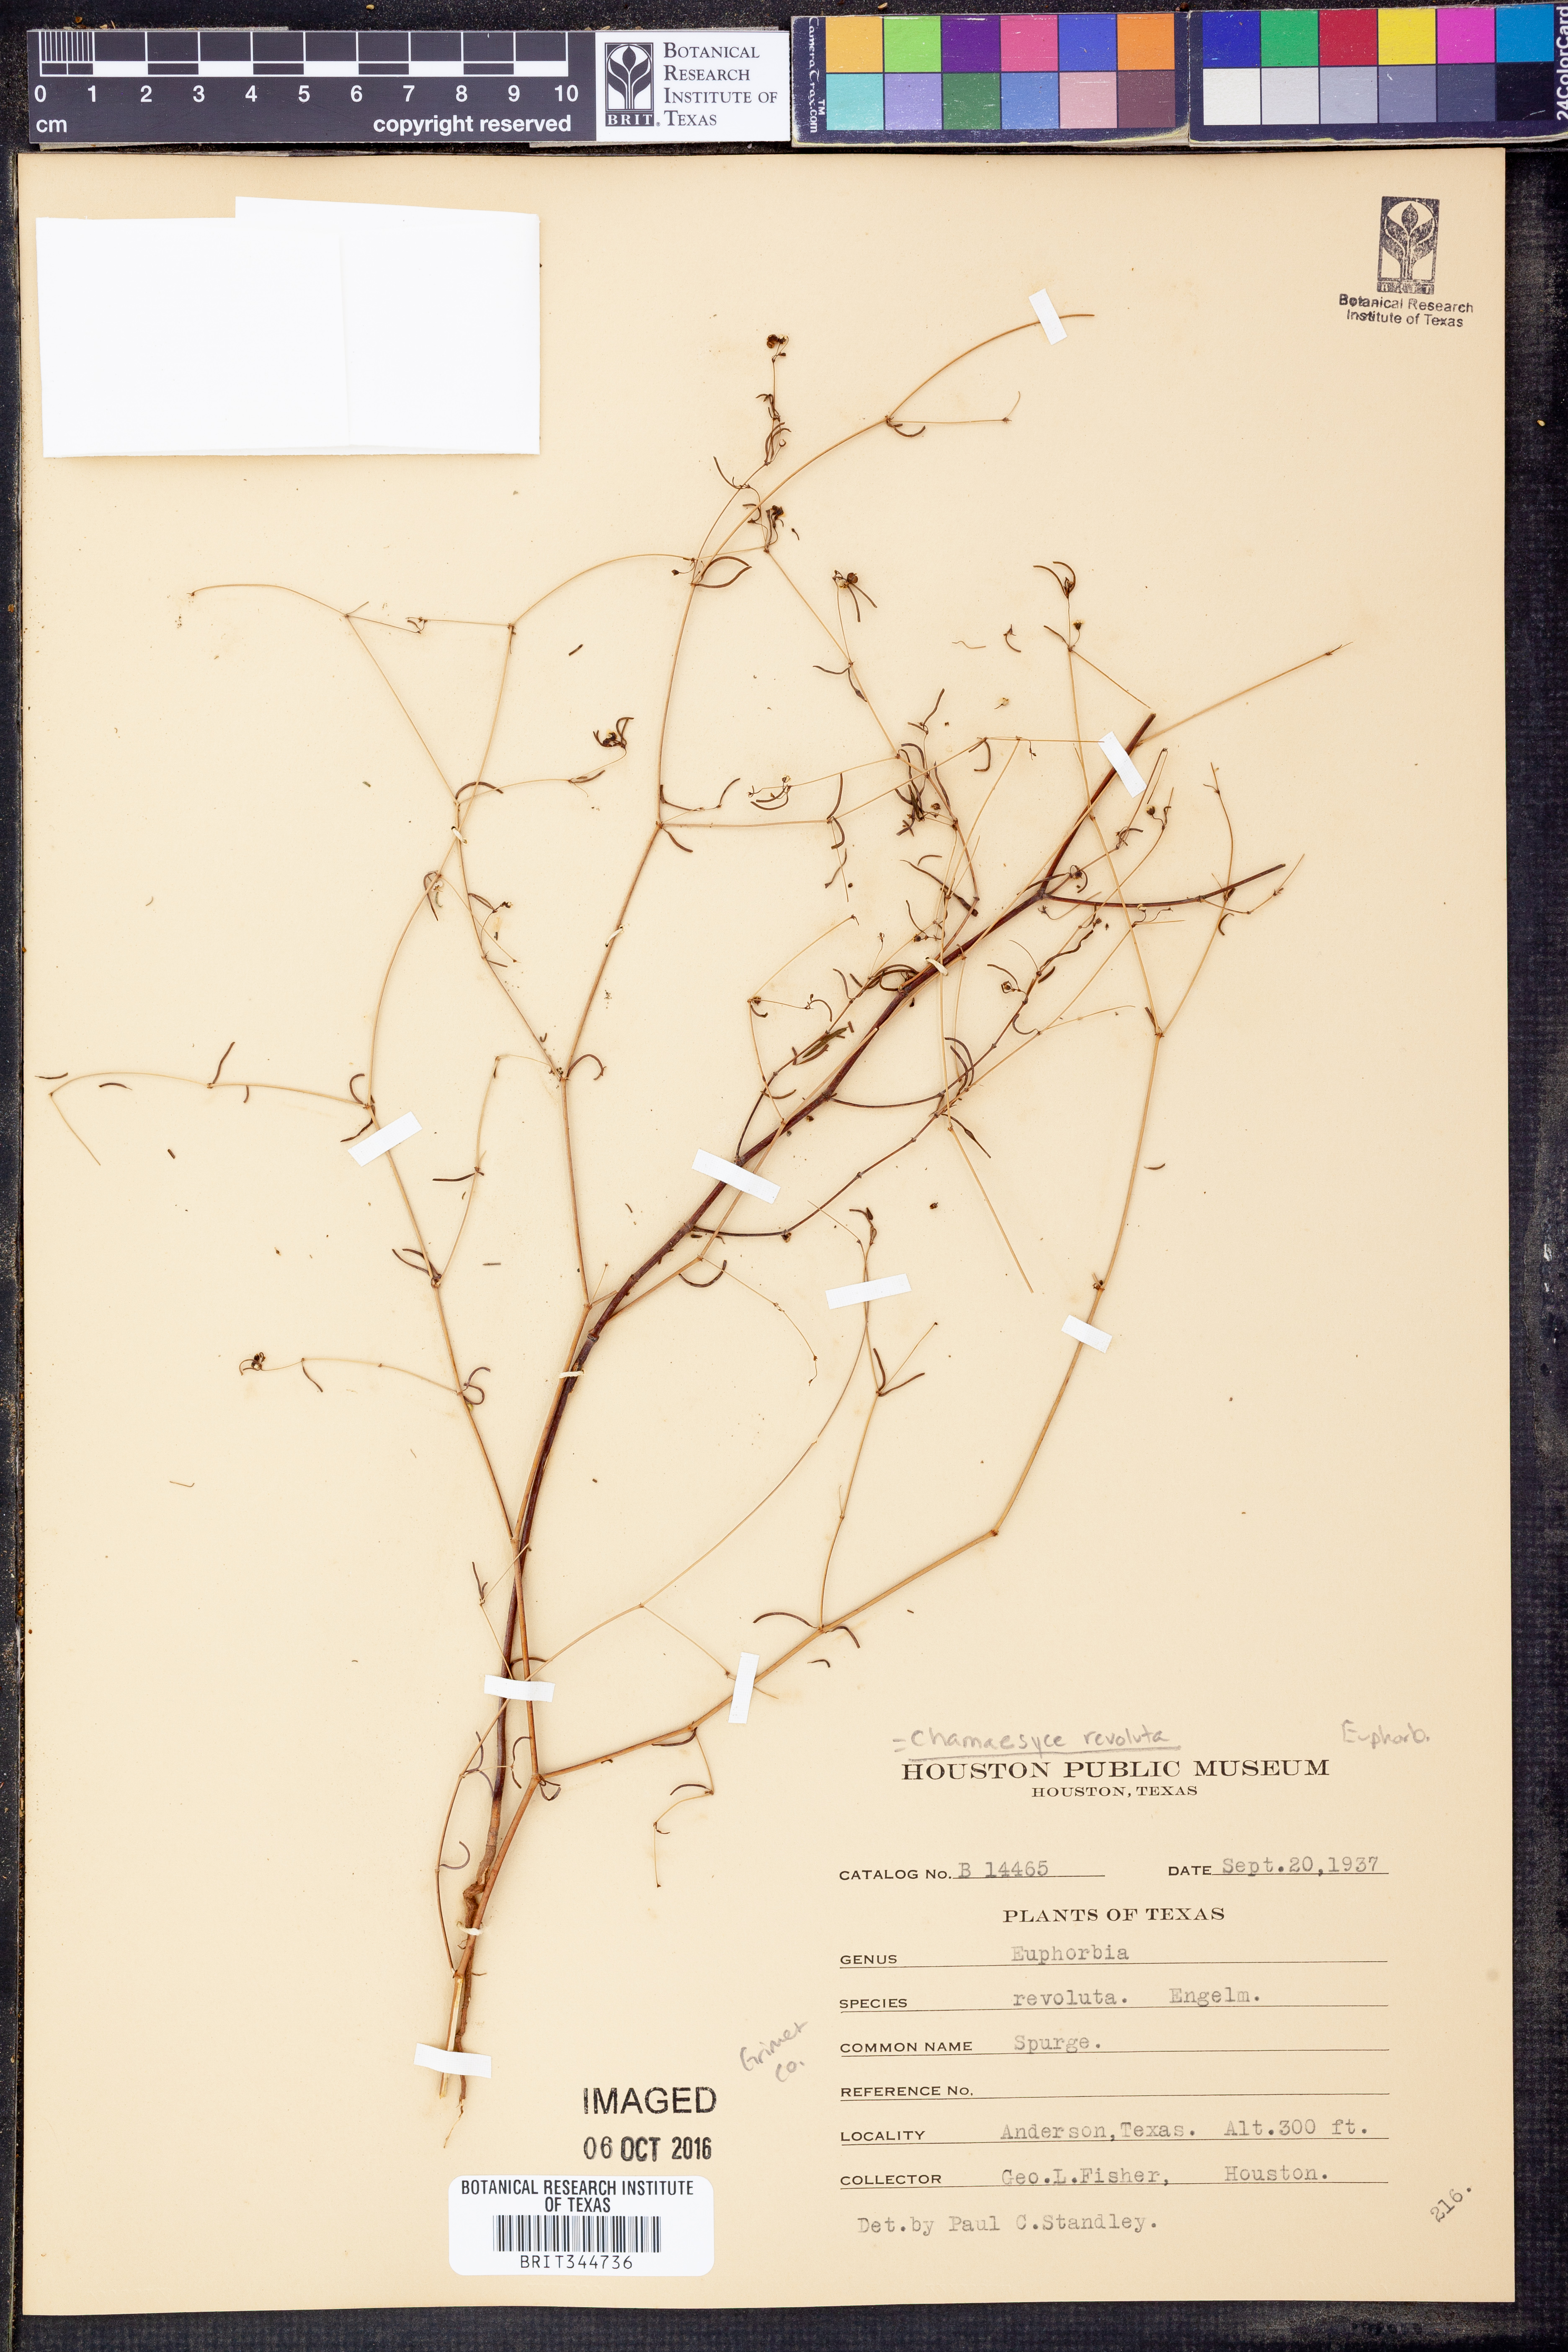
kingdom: Plantae
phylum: Tracheophyta
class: Magnoliopsida
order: Malpighiales
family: Euphorbiaceae
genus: Euphorbia
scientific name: Euphorbia revoluta
